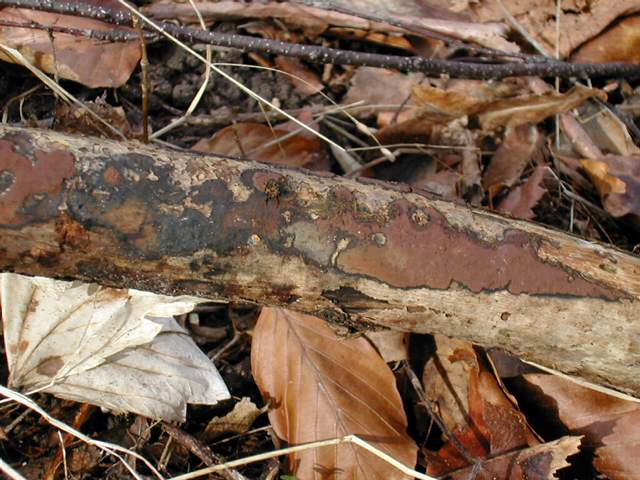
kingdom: Fungi
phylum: Ascomycota
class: Sordariomycetes
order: Xylariales
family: Hypoxylaceae
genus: Hypoxylon
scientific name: Hypoxylon petriniae
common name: nedsænket kulbær
